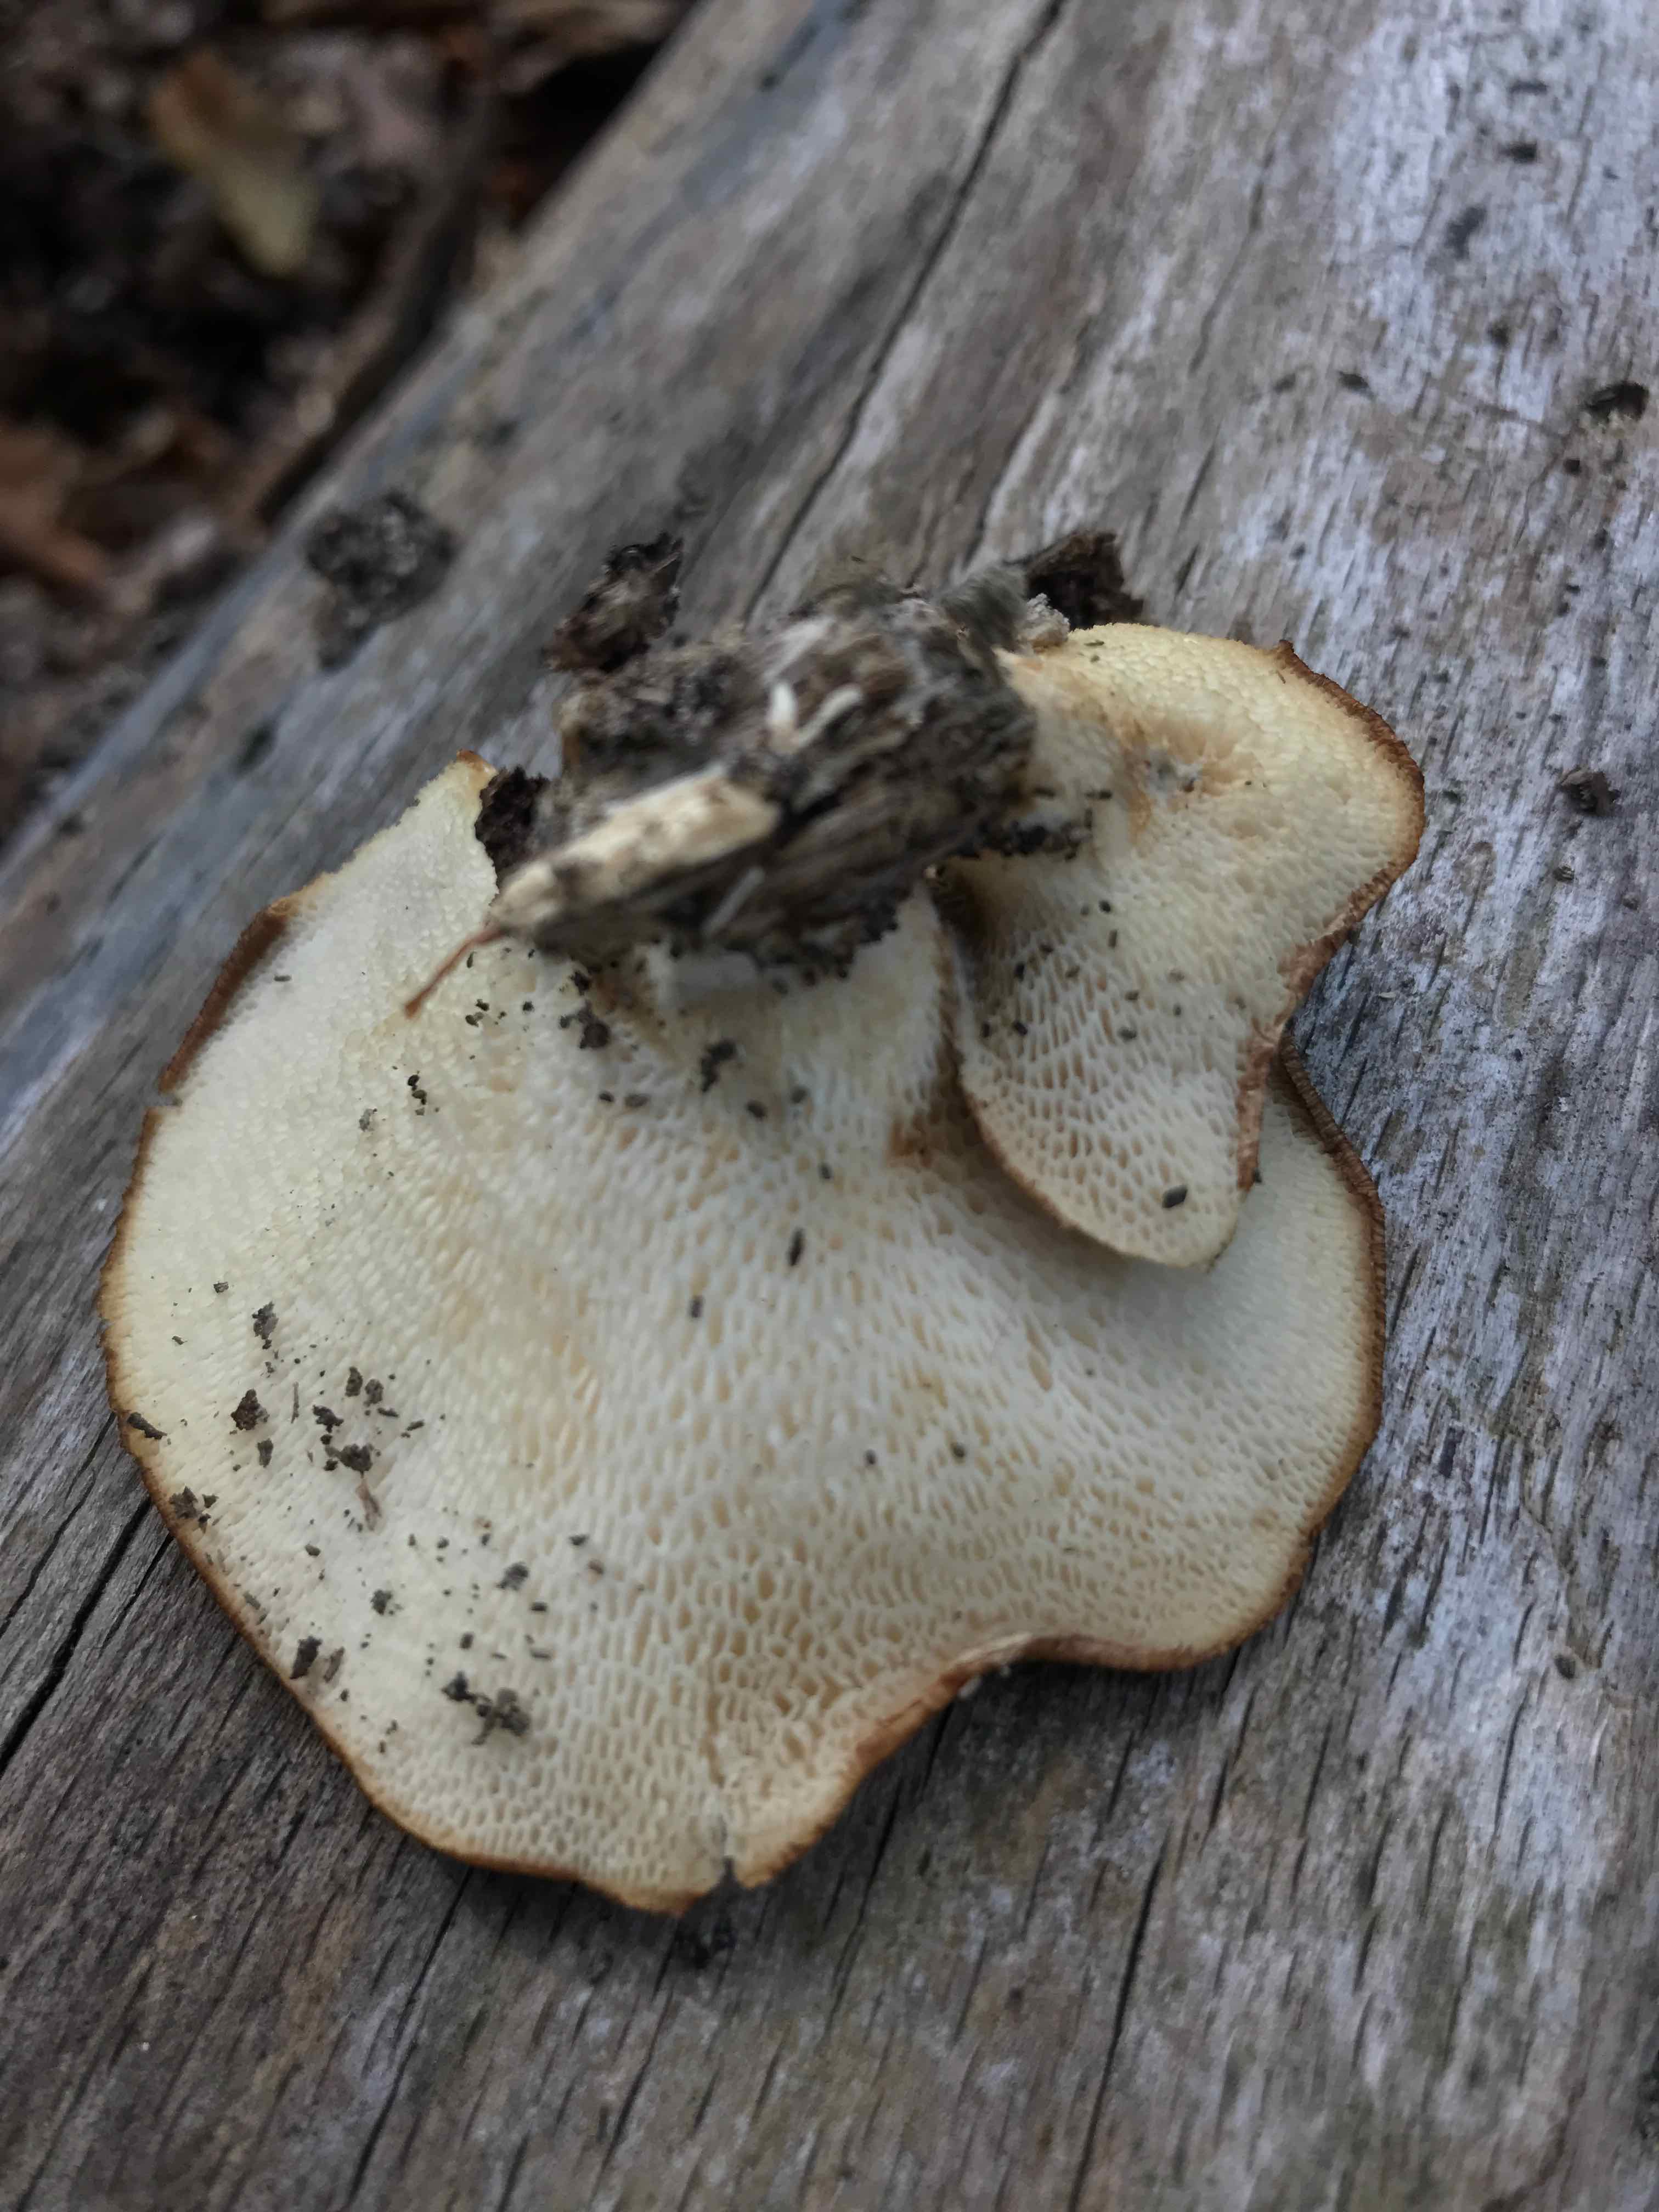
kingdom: Fungi
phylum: Basidiomycota
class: Agaricomycetes
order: Polyporales
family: Polyporaceae
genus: Polyporus
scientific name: Polyporus tuberaster
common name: knoldet stilkporesvamp
